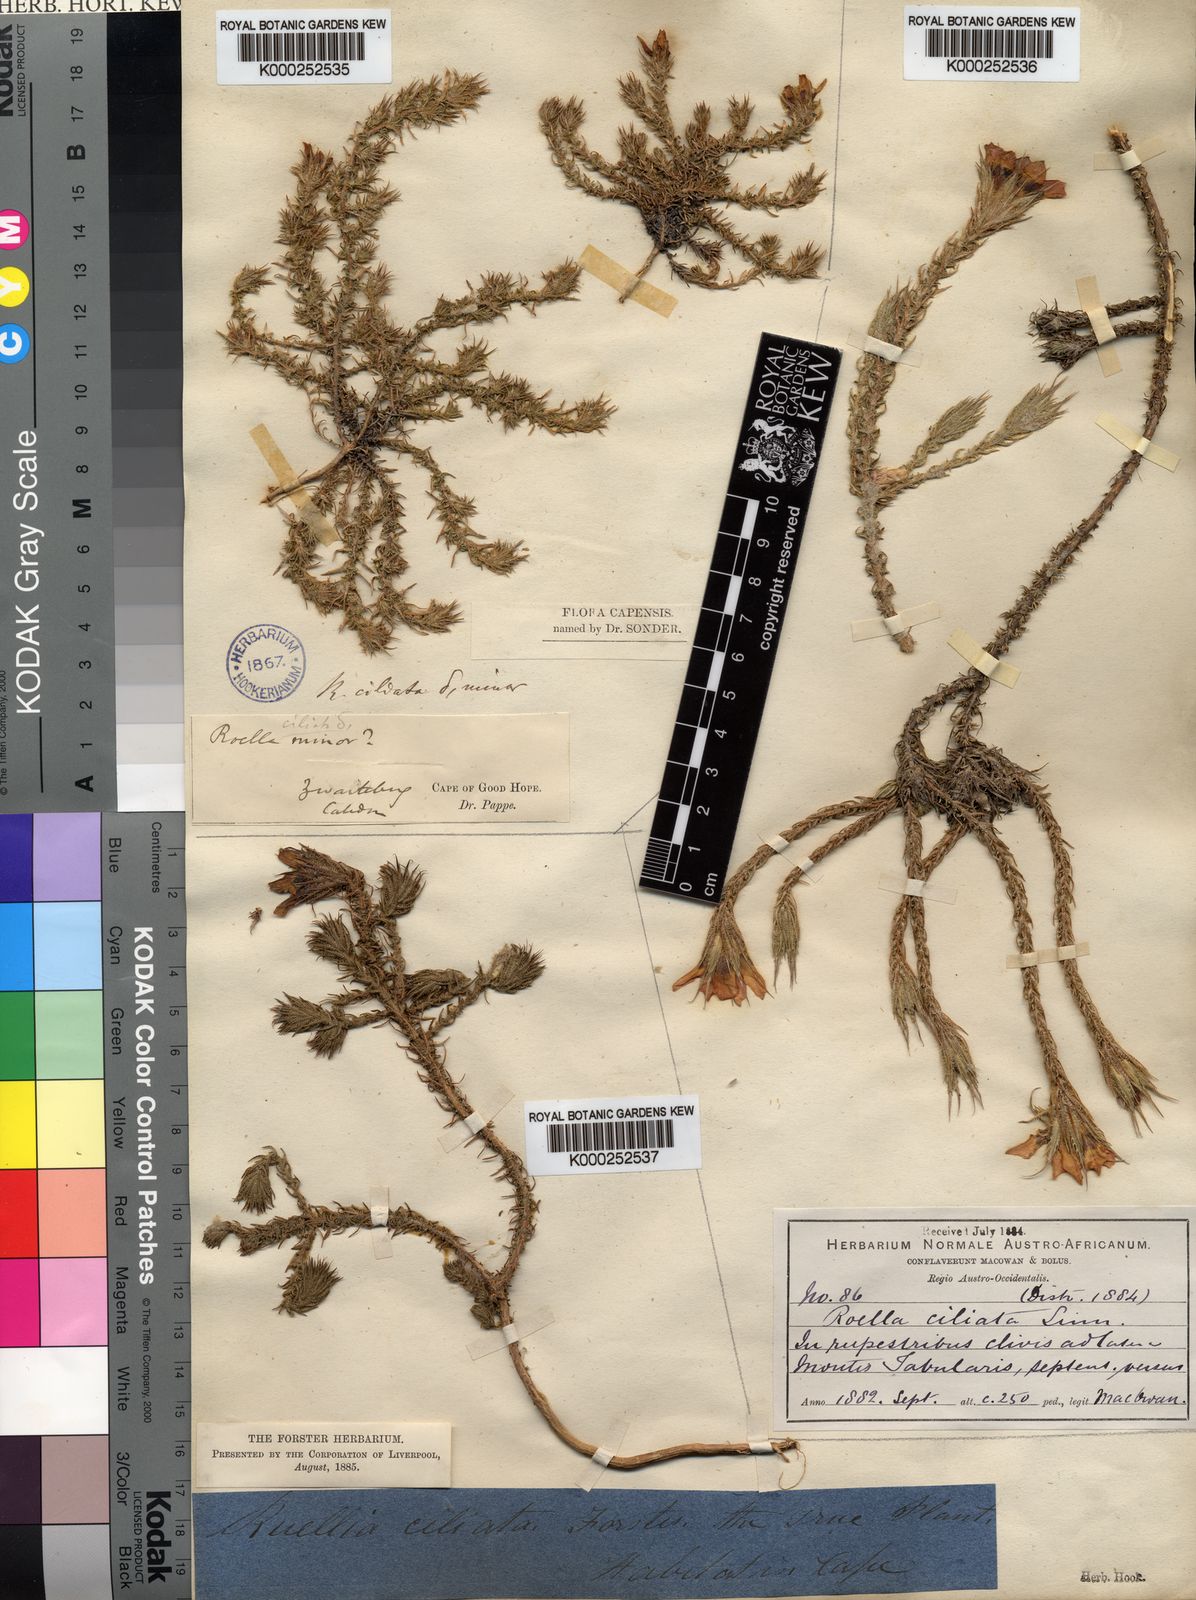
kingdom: Plantae
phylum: Tracheophyta
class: Magnoliopsida
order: Asterales
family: Campanulaceae
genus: Roella
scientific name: Roella ciliata
